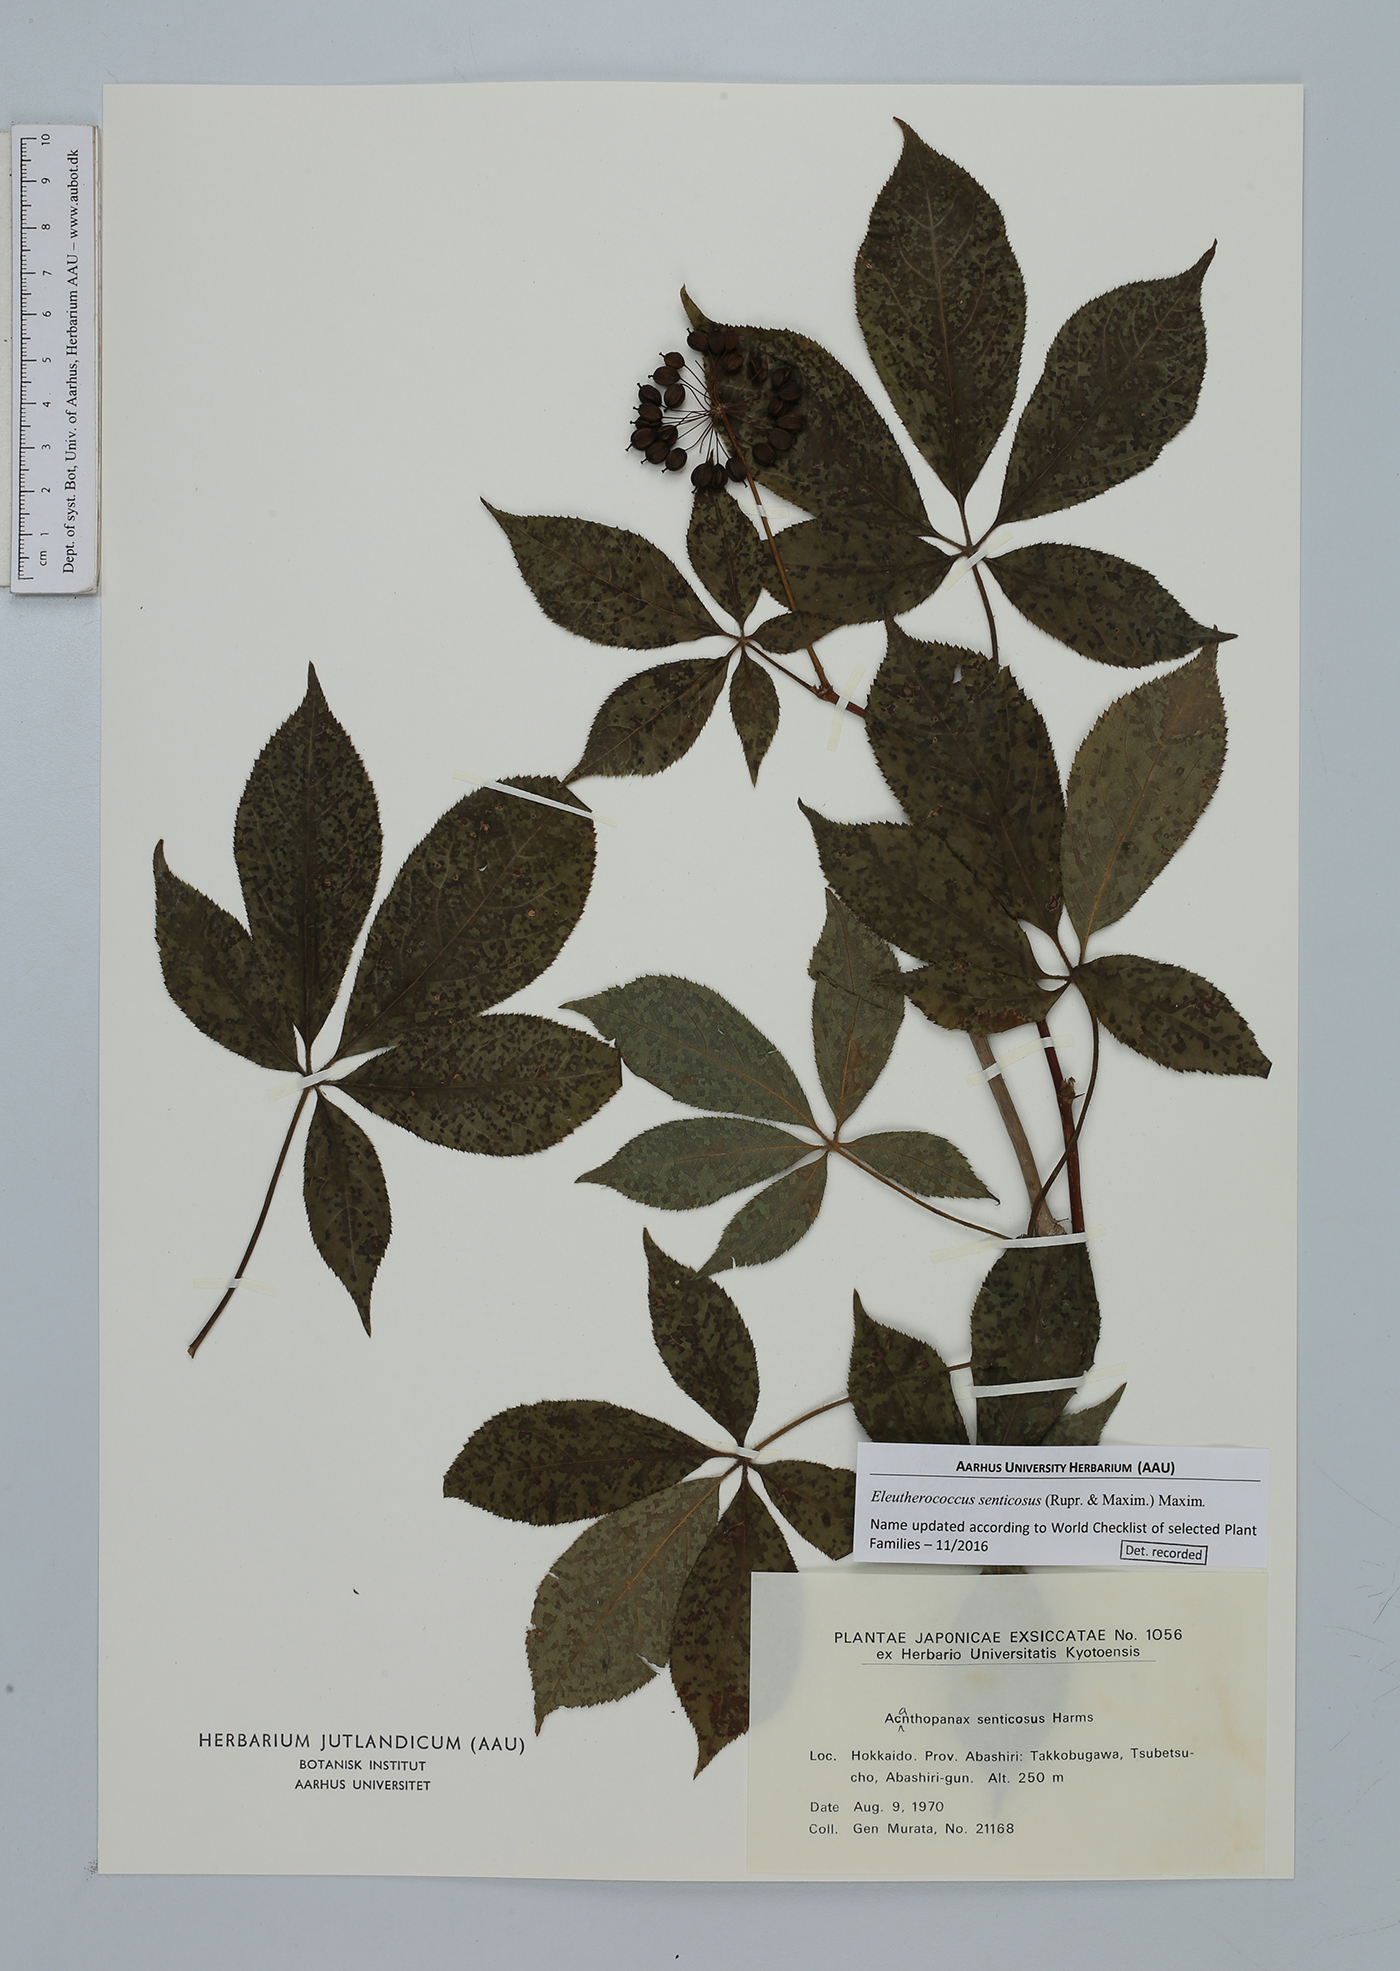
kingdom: Plantae
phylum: Tracheophyta
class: Magnoliopsida
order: Apiales
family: Araliaceae
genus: Eleutherococcus
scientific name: Eleutherococcus senticosus
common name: Siberian-ginseng
